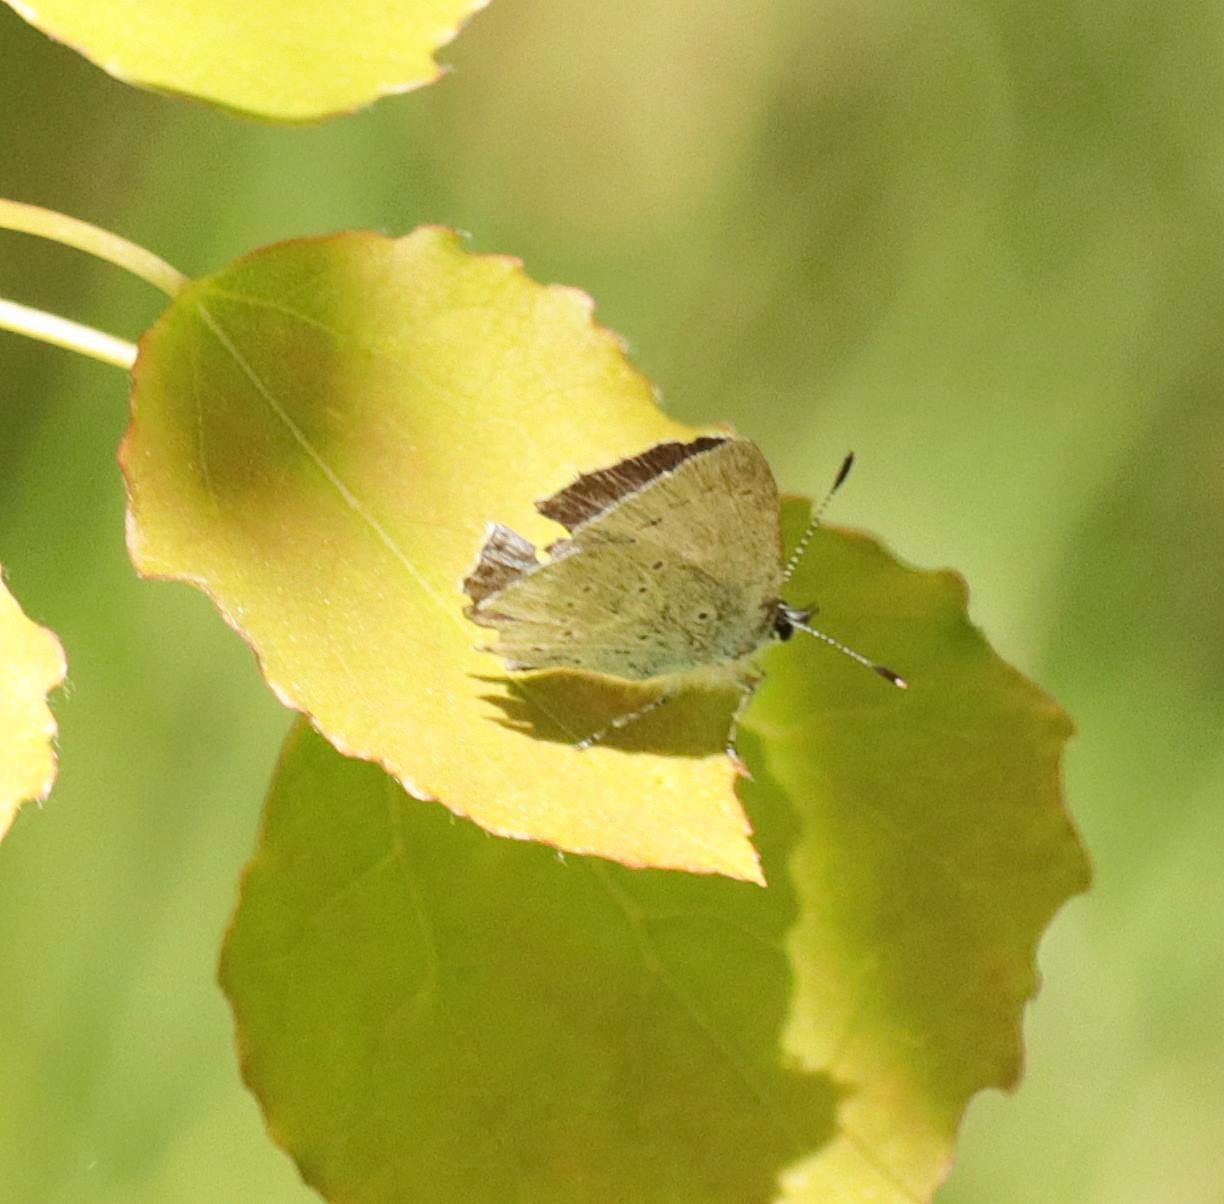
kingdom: Animalia
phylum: Arthropoda
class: Insecta
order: Lepidoptera
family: Lycaenidae
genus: Celastrina
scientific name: Celastrina argiolus
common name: Skovblåfugl
